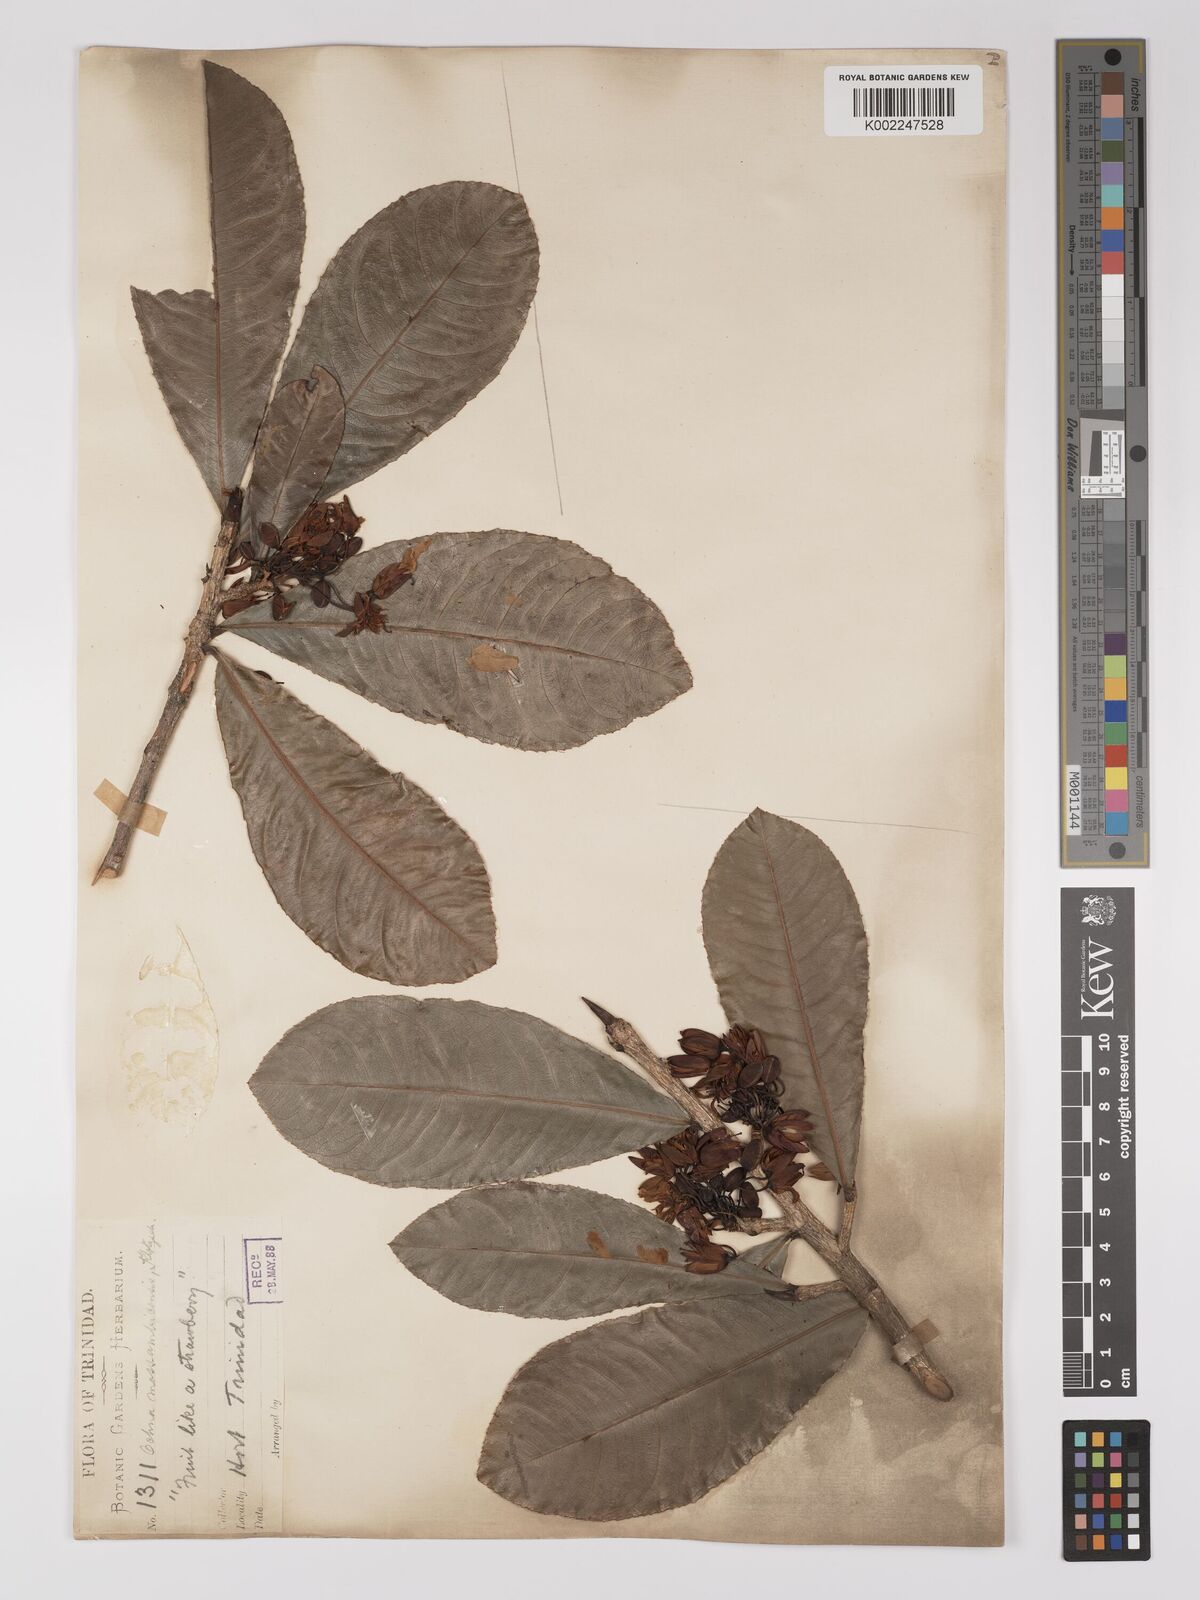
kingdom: Plantae
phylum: Tracheophyta
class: Magnoliopsida
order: Malpighiales
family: Ochnaceae
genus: Ochna
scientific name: Ochna atropurpurea
